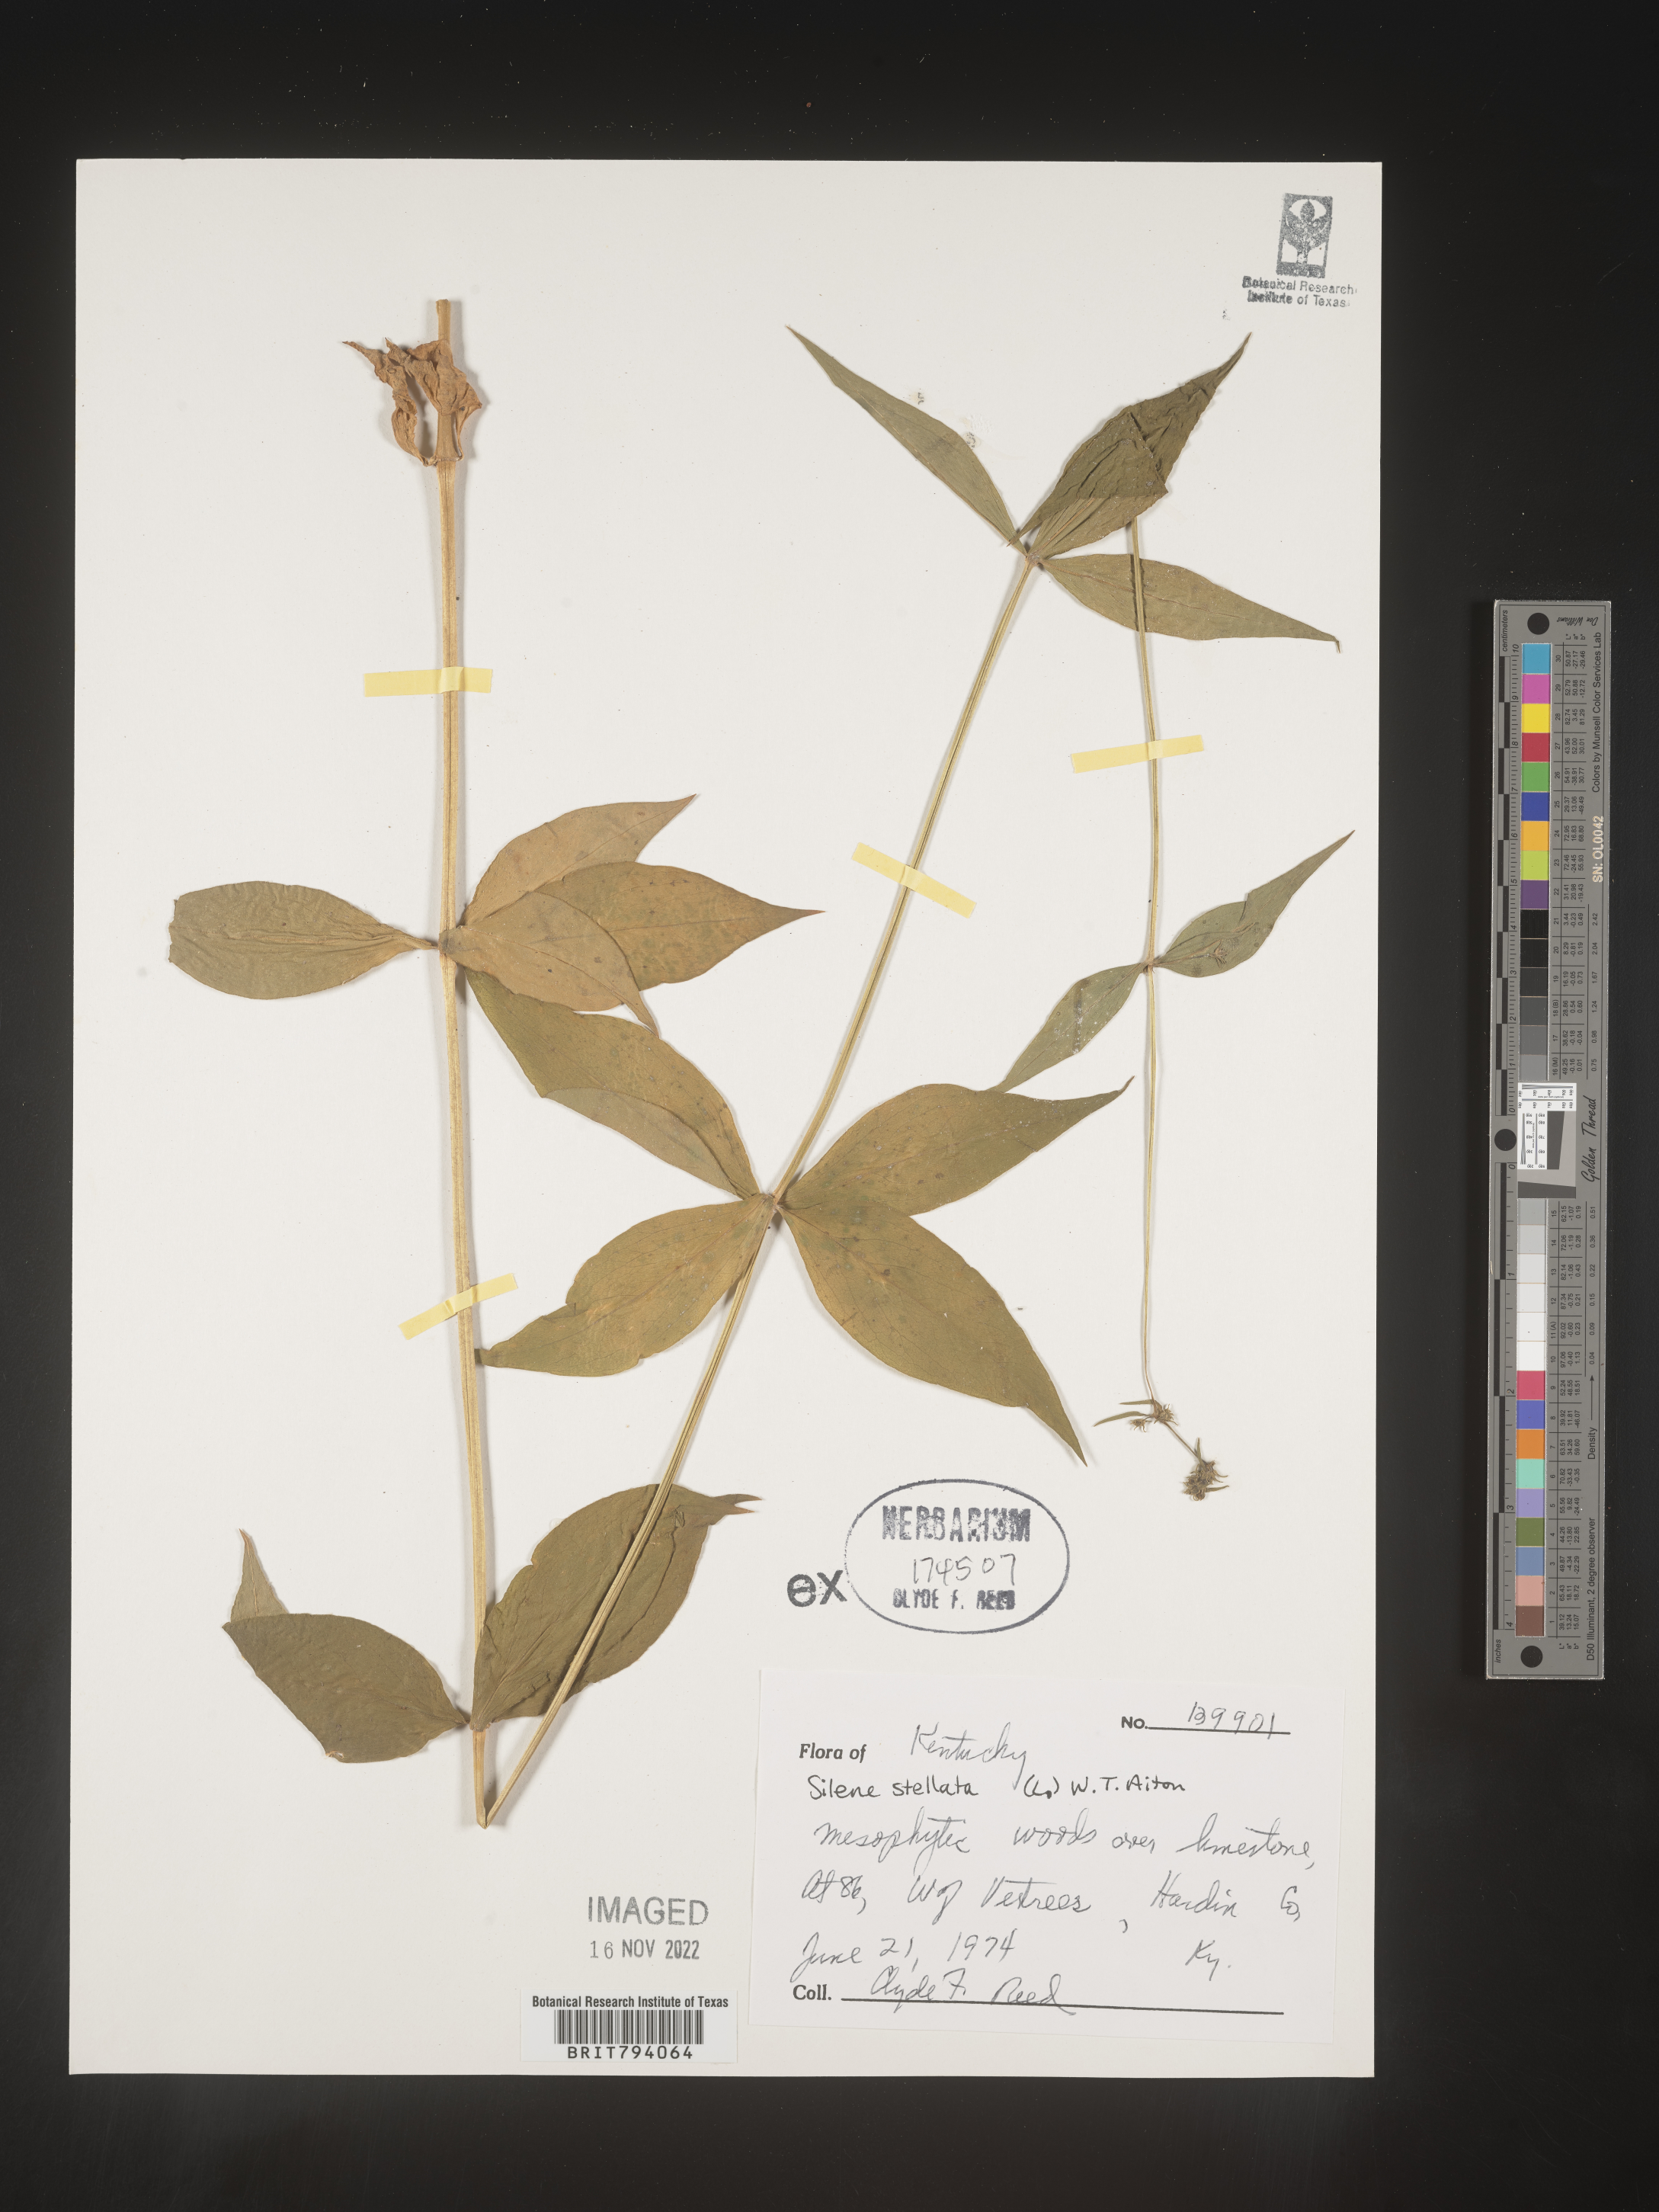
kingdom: Plantae
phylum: Tracheophyta
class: Magnoliopsida
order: Caryophyllales
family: Caryophyllaceae
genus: Silene
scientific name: Silene stellata
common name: Starry campion
